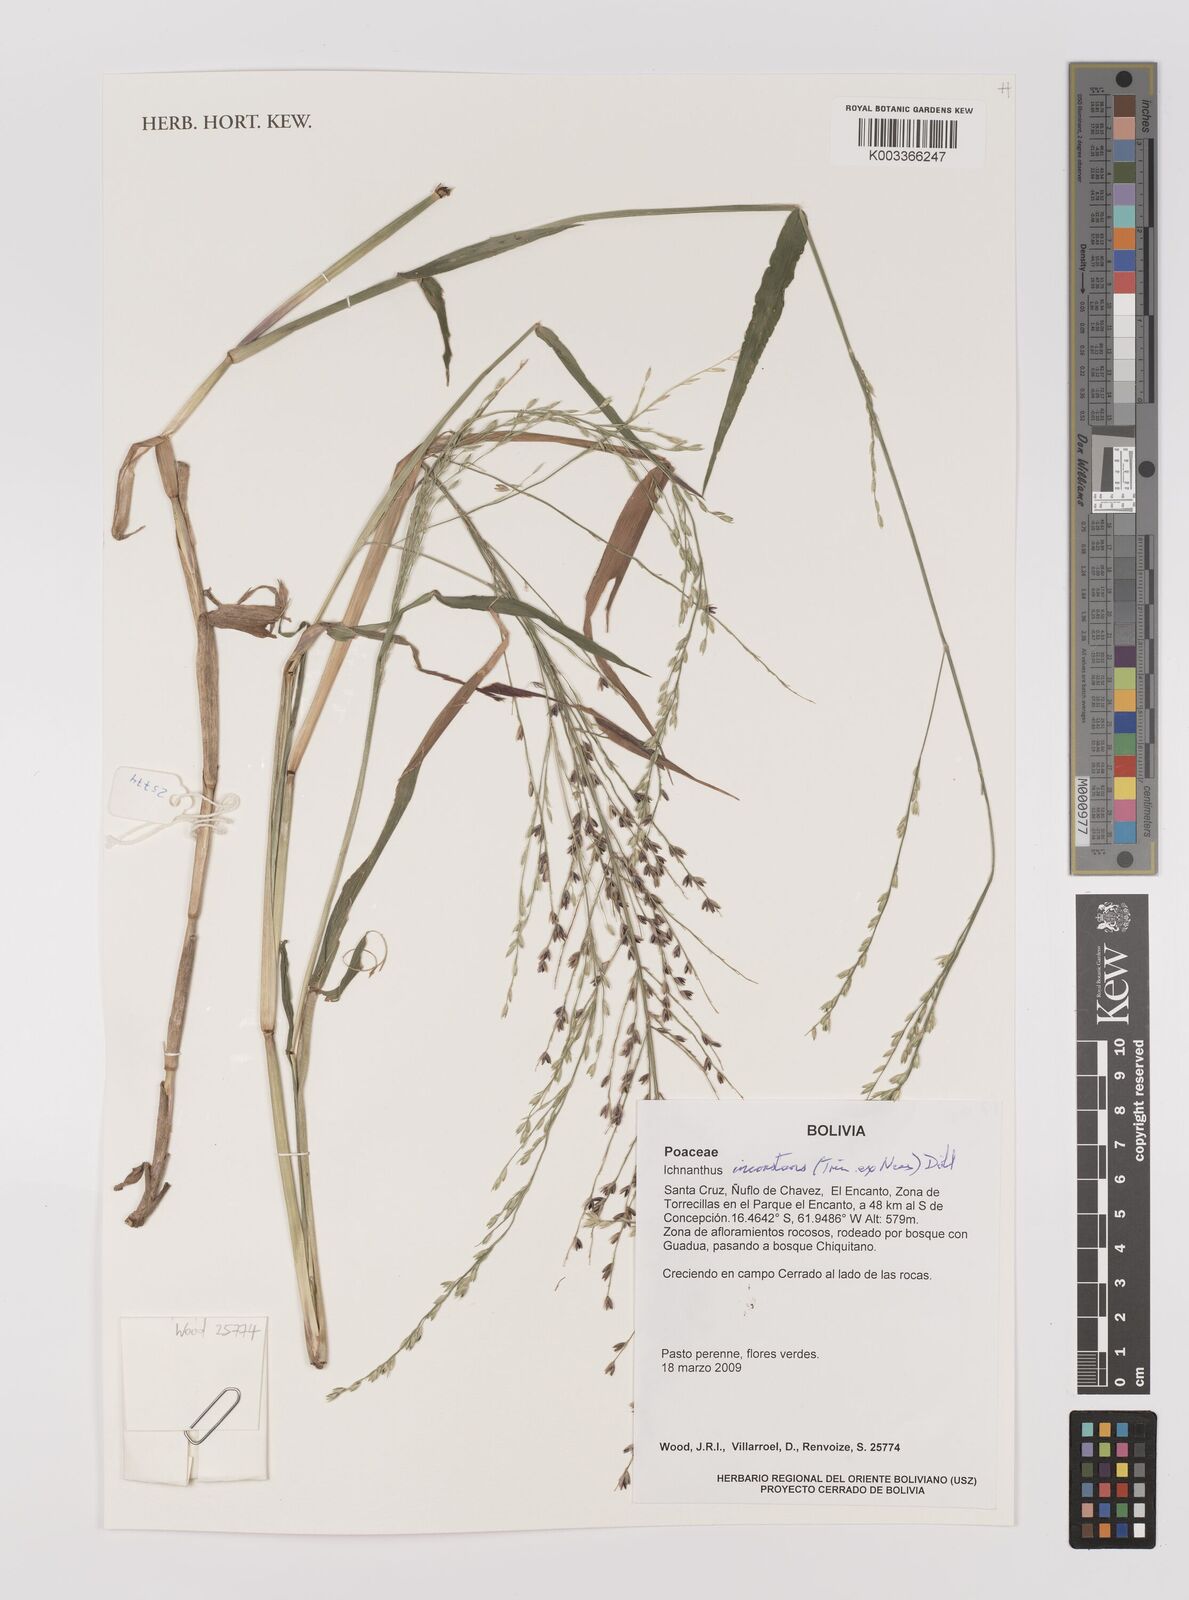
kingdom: Plantae
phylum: Tracheophyta
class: Liliopsida
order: Poales
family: Poaceae
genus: Ichnanthus
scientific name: Ichnanthus inconstans
